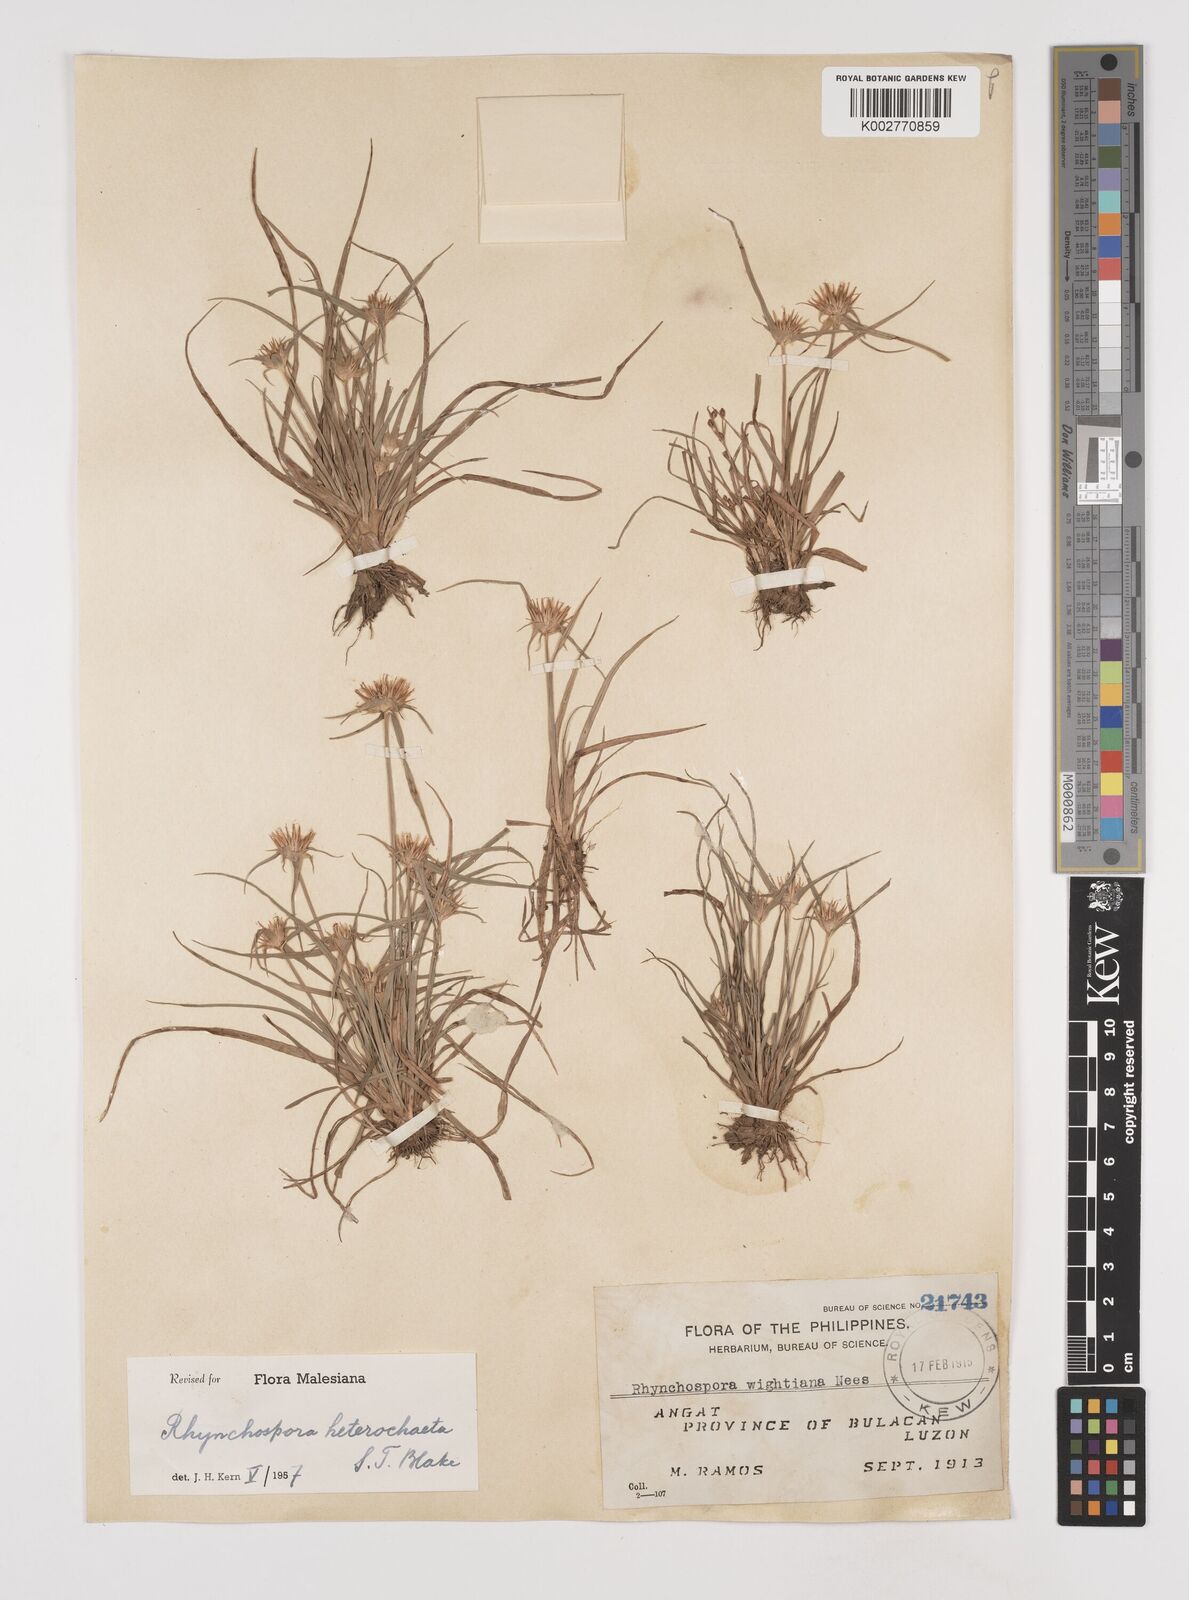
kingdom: Plantae
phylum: Tracheophyta
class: Liliopsida
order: Poales
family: Cyperaceae
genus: Rhynchospora
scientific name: Rhynchospora heterochaeta
